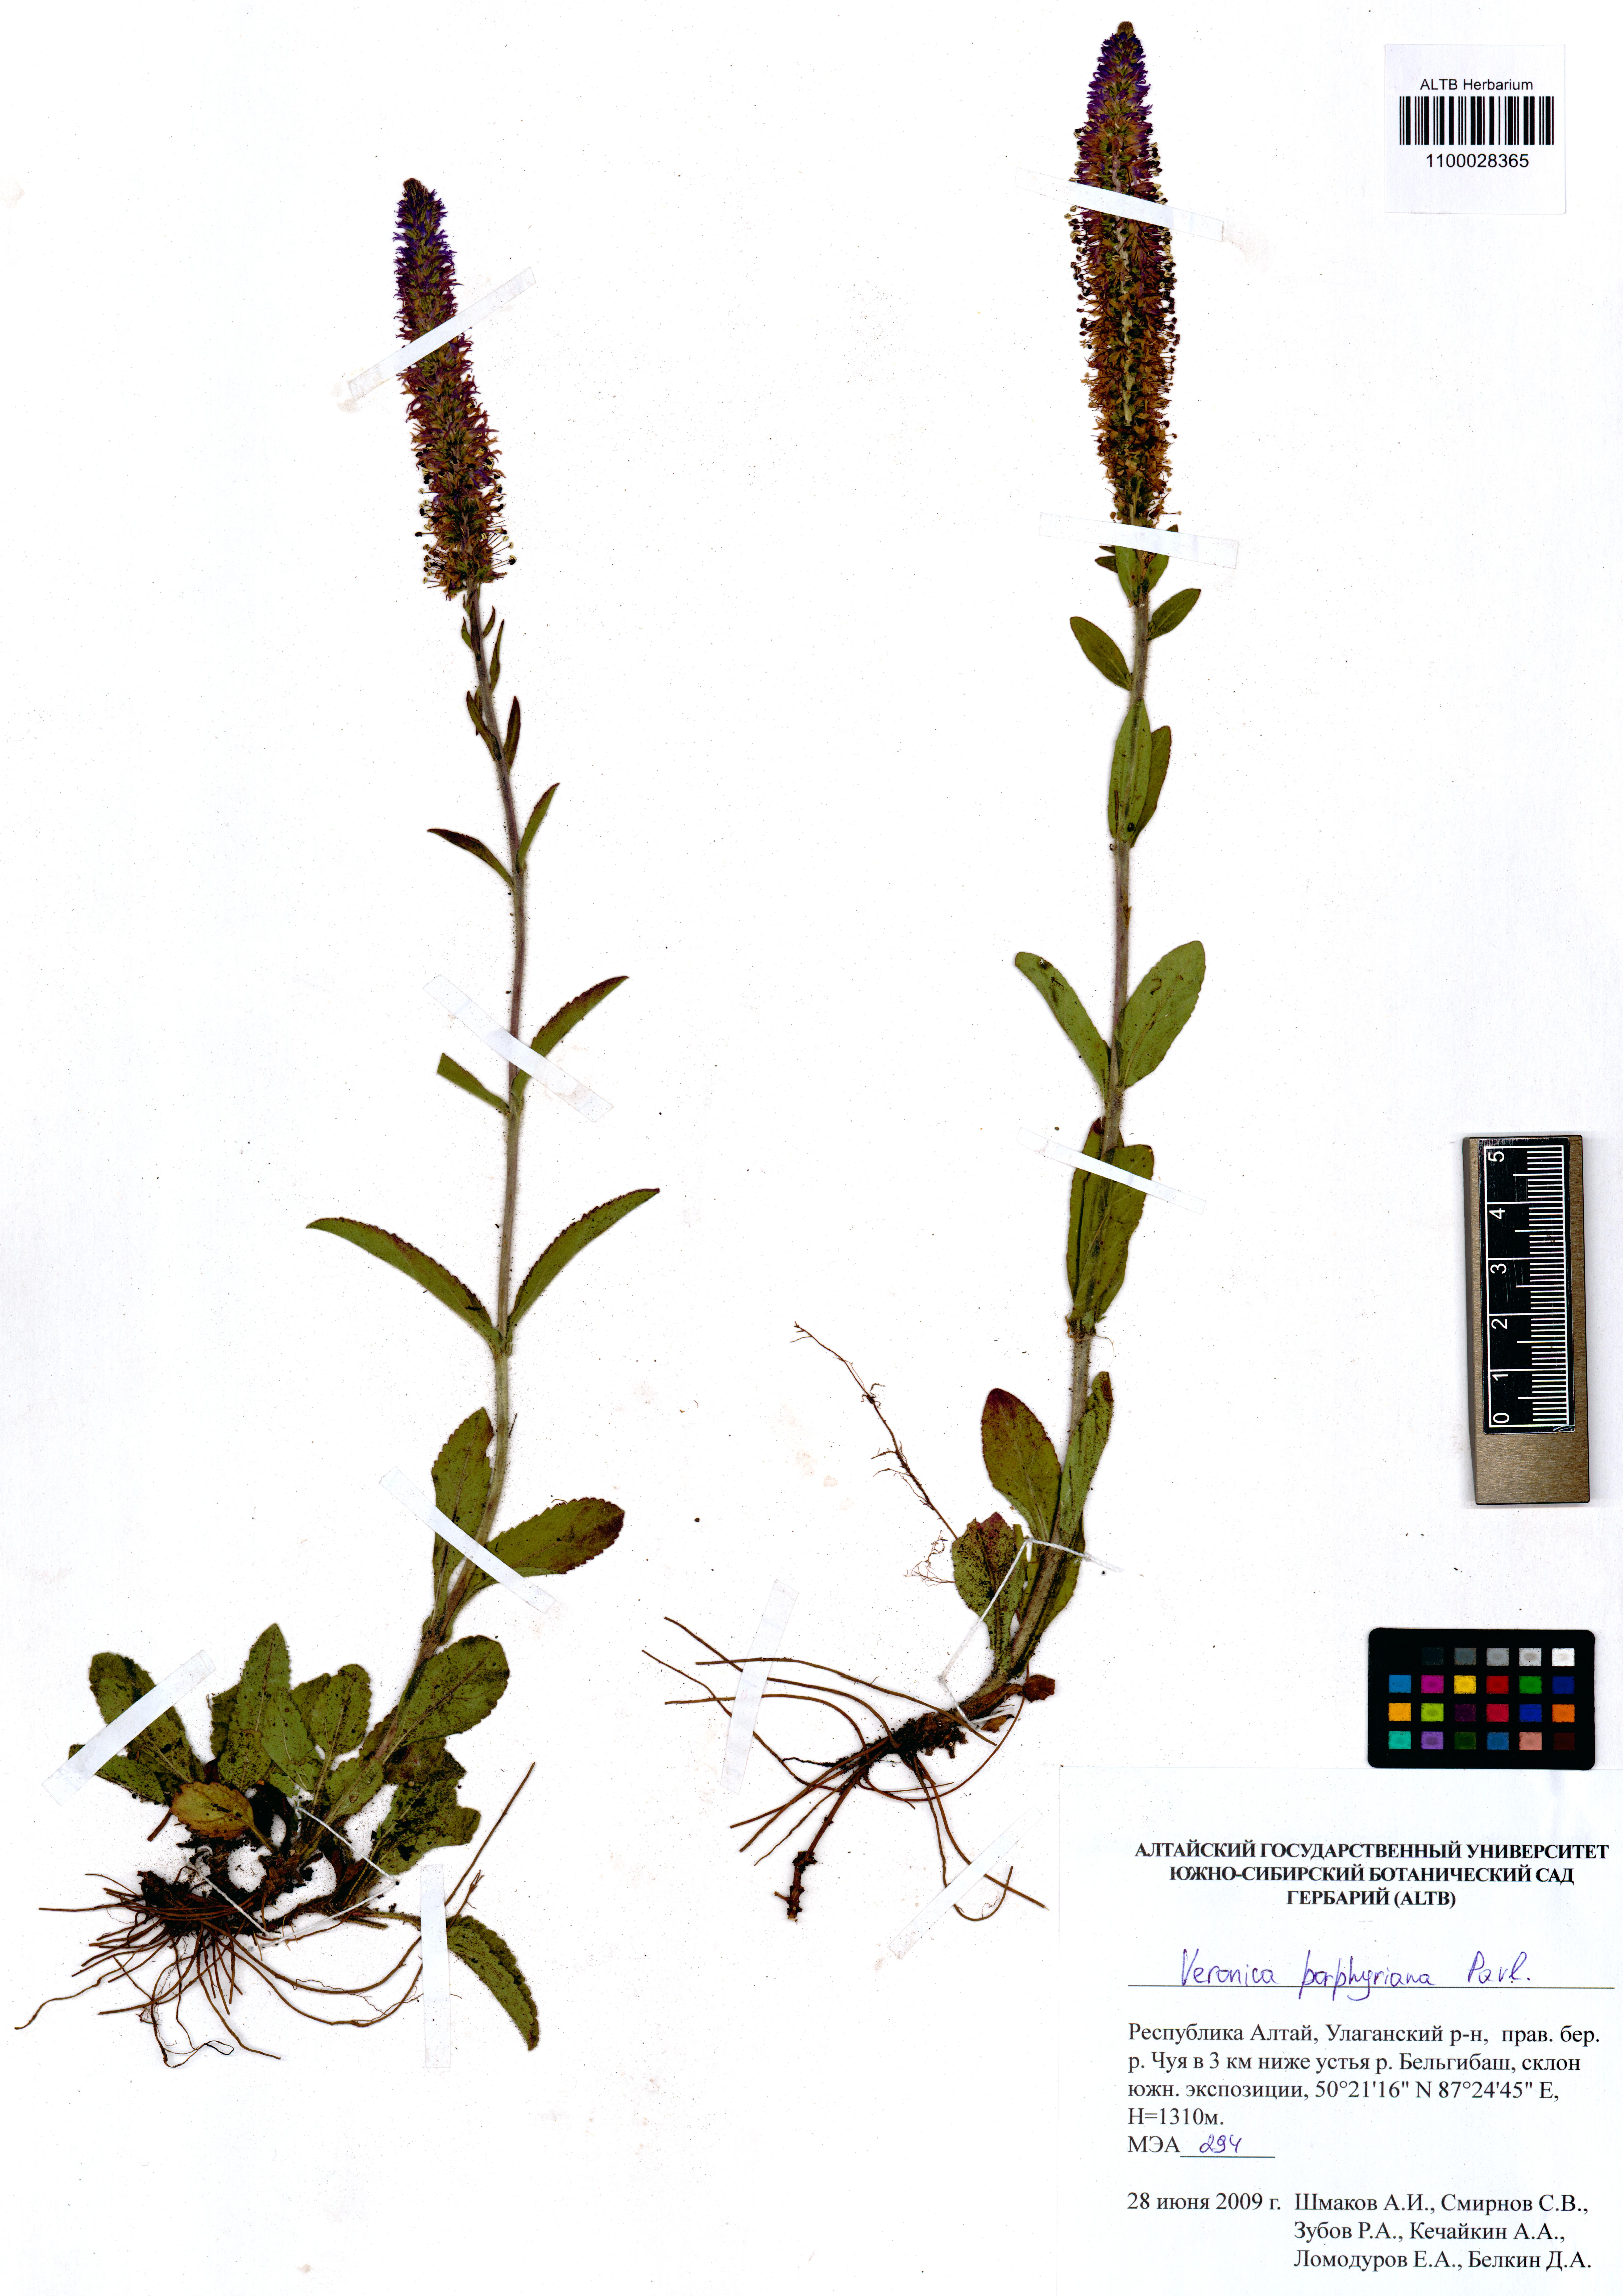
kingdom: Plantae
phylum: Tracheophyta
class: Magnoliopsida
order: Lamiales
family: Plantaginaceae
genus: Veronica
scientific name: Veronica porphyriana
